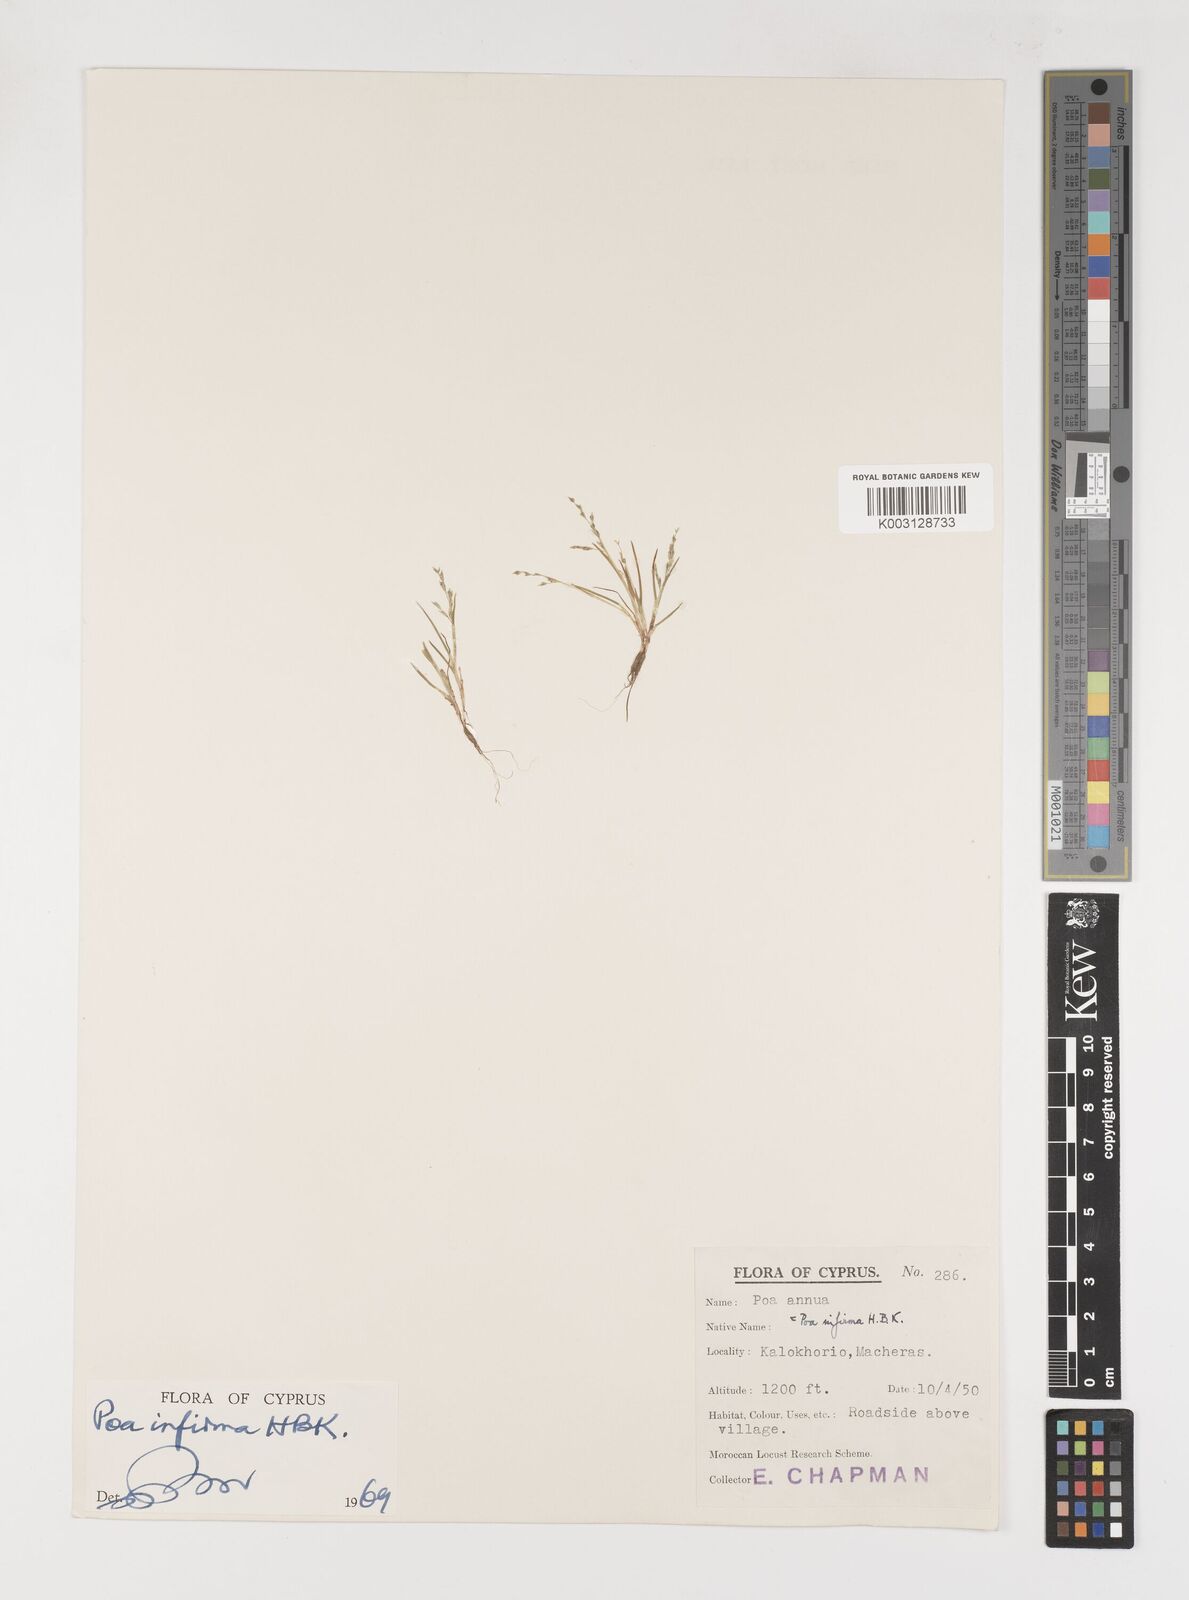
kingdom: Plantae
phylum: Tracheophyta
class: Liliopsida
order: Poales
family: Poaceae
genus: Poa
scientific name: Poa infirma
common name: Weak bluegrass
